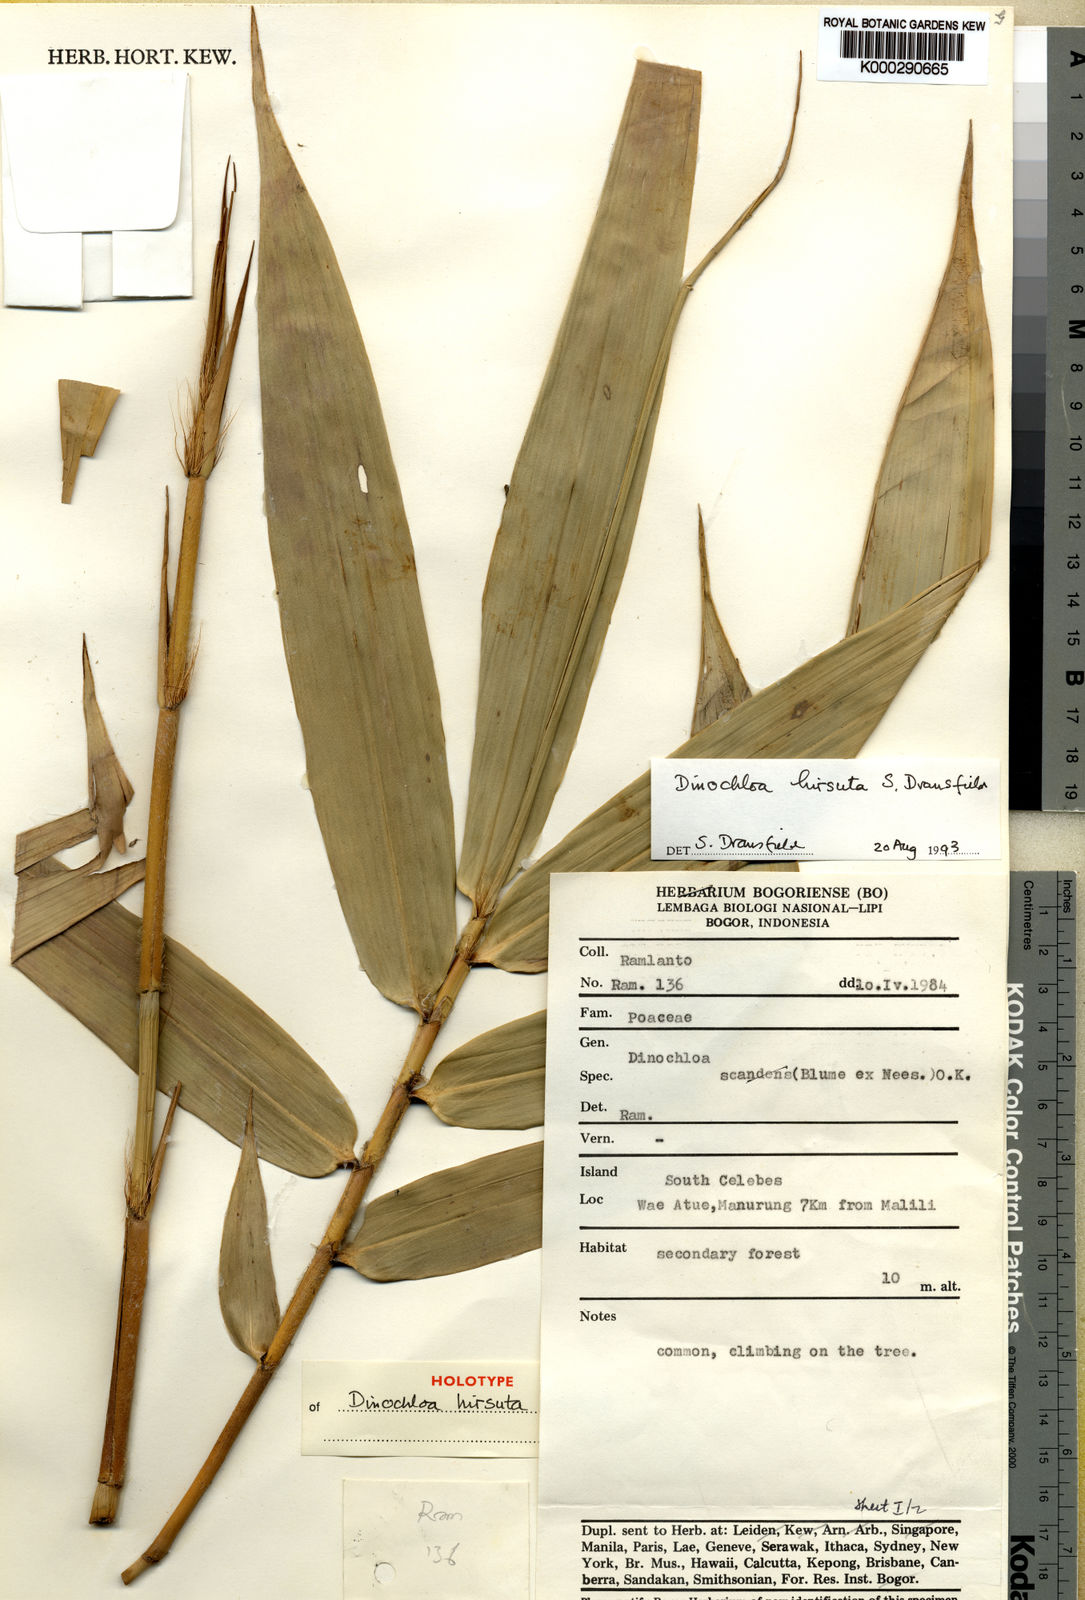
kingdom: Plantae
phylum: Tracheophyta
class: Liliopsida
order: Poales
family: Poaceae
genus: Dinochloa
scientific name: Dinochloa hirsuta
